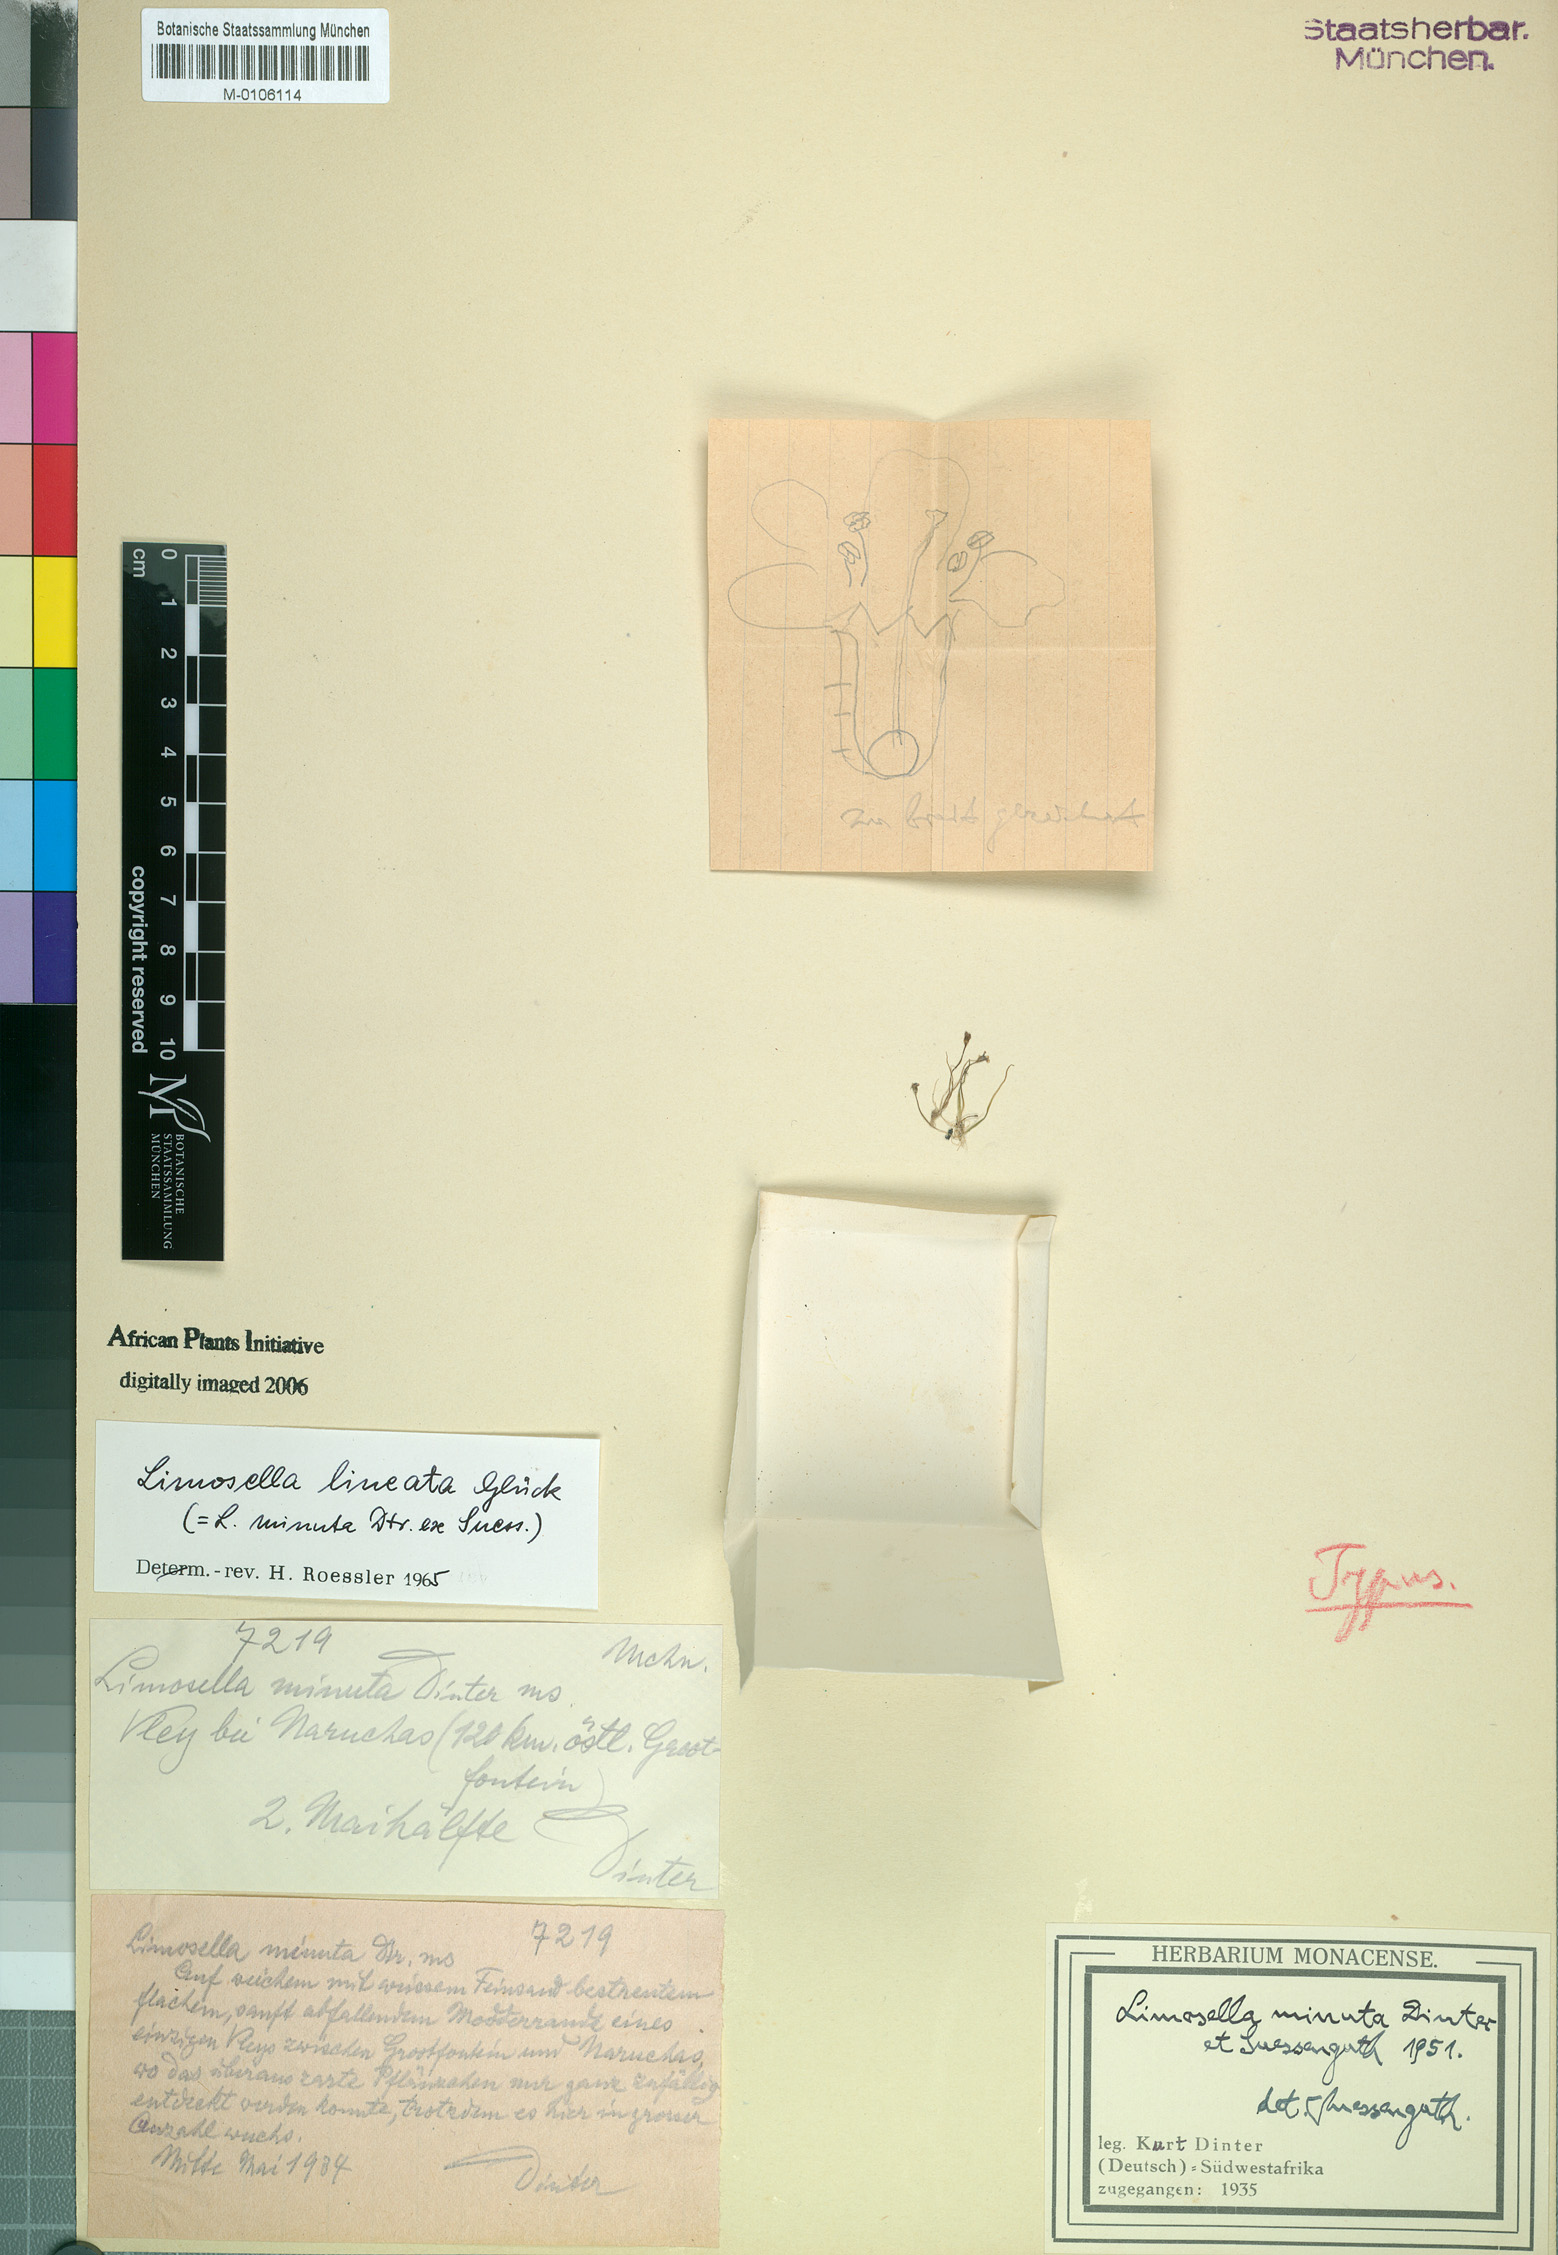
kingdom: Plantae
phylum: Tracheophyta
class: Magnoliopsida
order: Lamiales
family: Scrophulariaceae
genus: Limosella
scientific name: Limosella australis
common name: Welsh mudwort
